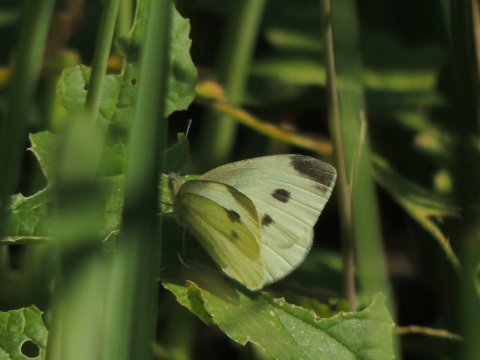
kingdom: Animalia
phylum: Arthropoda
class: Insecta
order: Lepidoptera
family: Pieridae
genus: Pieris
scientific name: Pieris rapae
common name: Cabbage White
